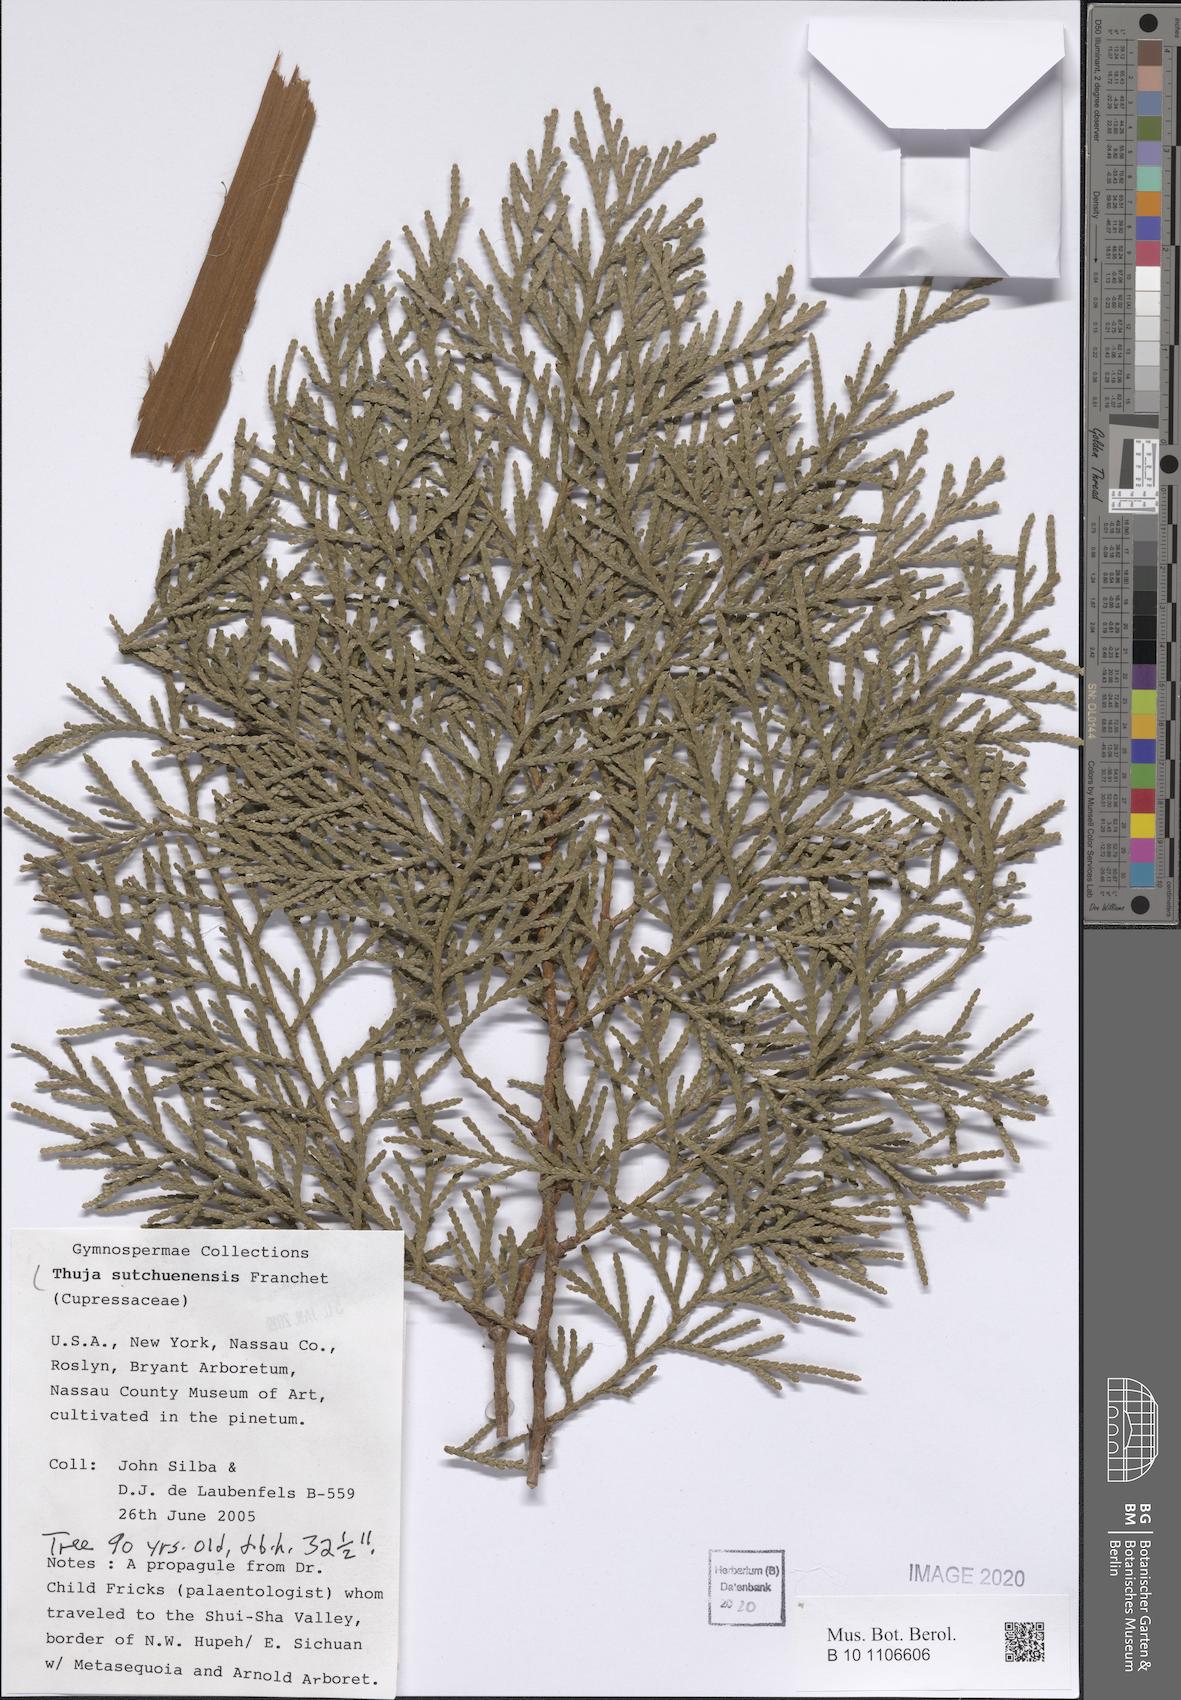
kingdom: Plantae
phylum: Tracheophyta
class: Pinopsida
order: Pinales
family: Cupressaceae
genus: Thuja
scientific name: Thuja sutchuenensis
